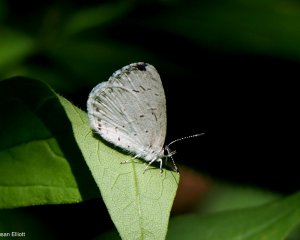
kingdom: Animalia
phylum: Arthropoda
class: Insecta
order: Lepidoptera
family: Lycaenidae
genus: Celastrina
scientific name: Celastrina
